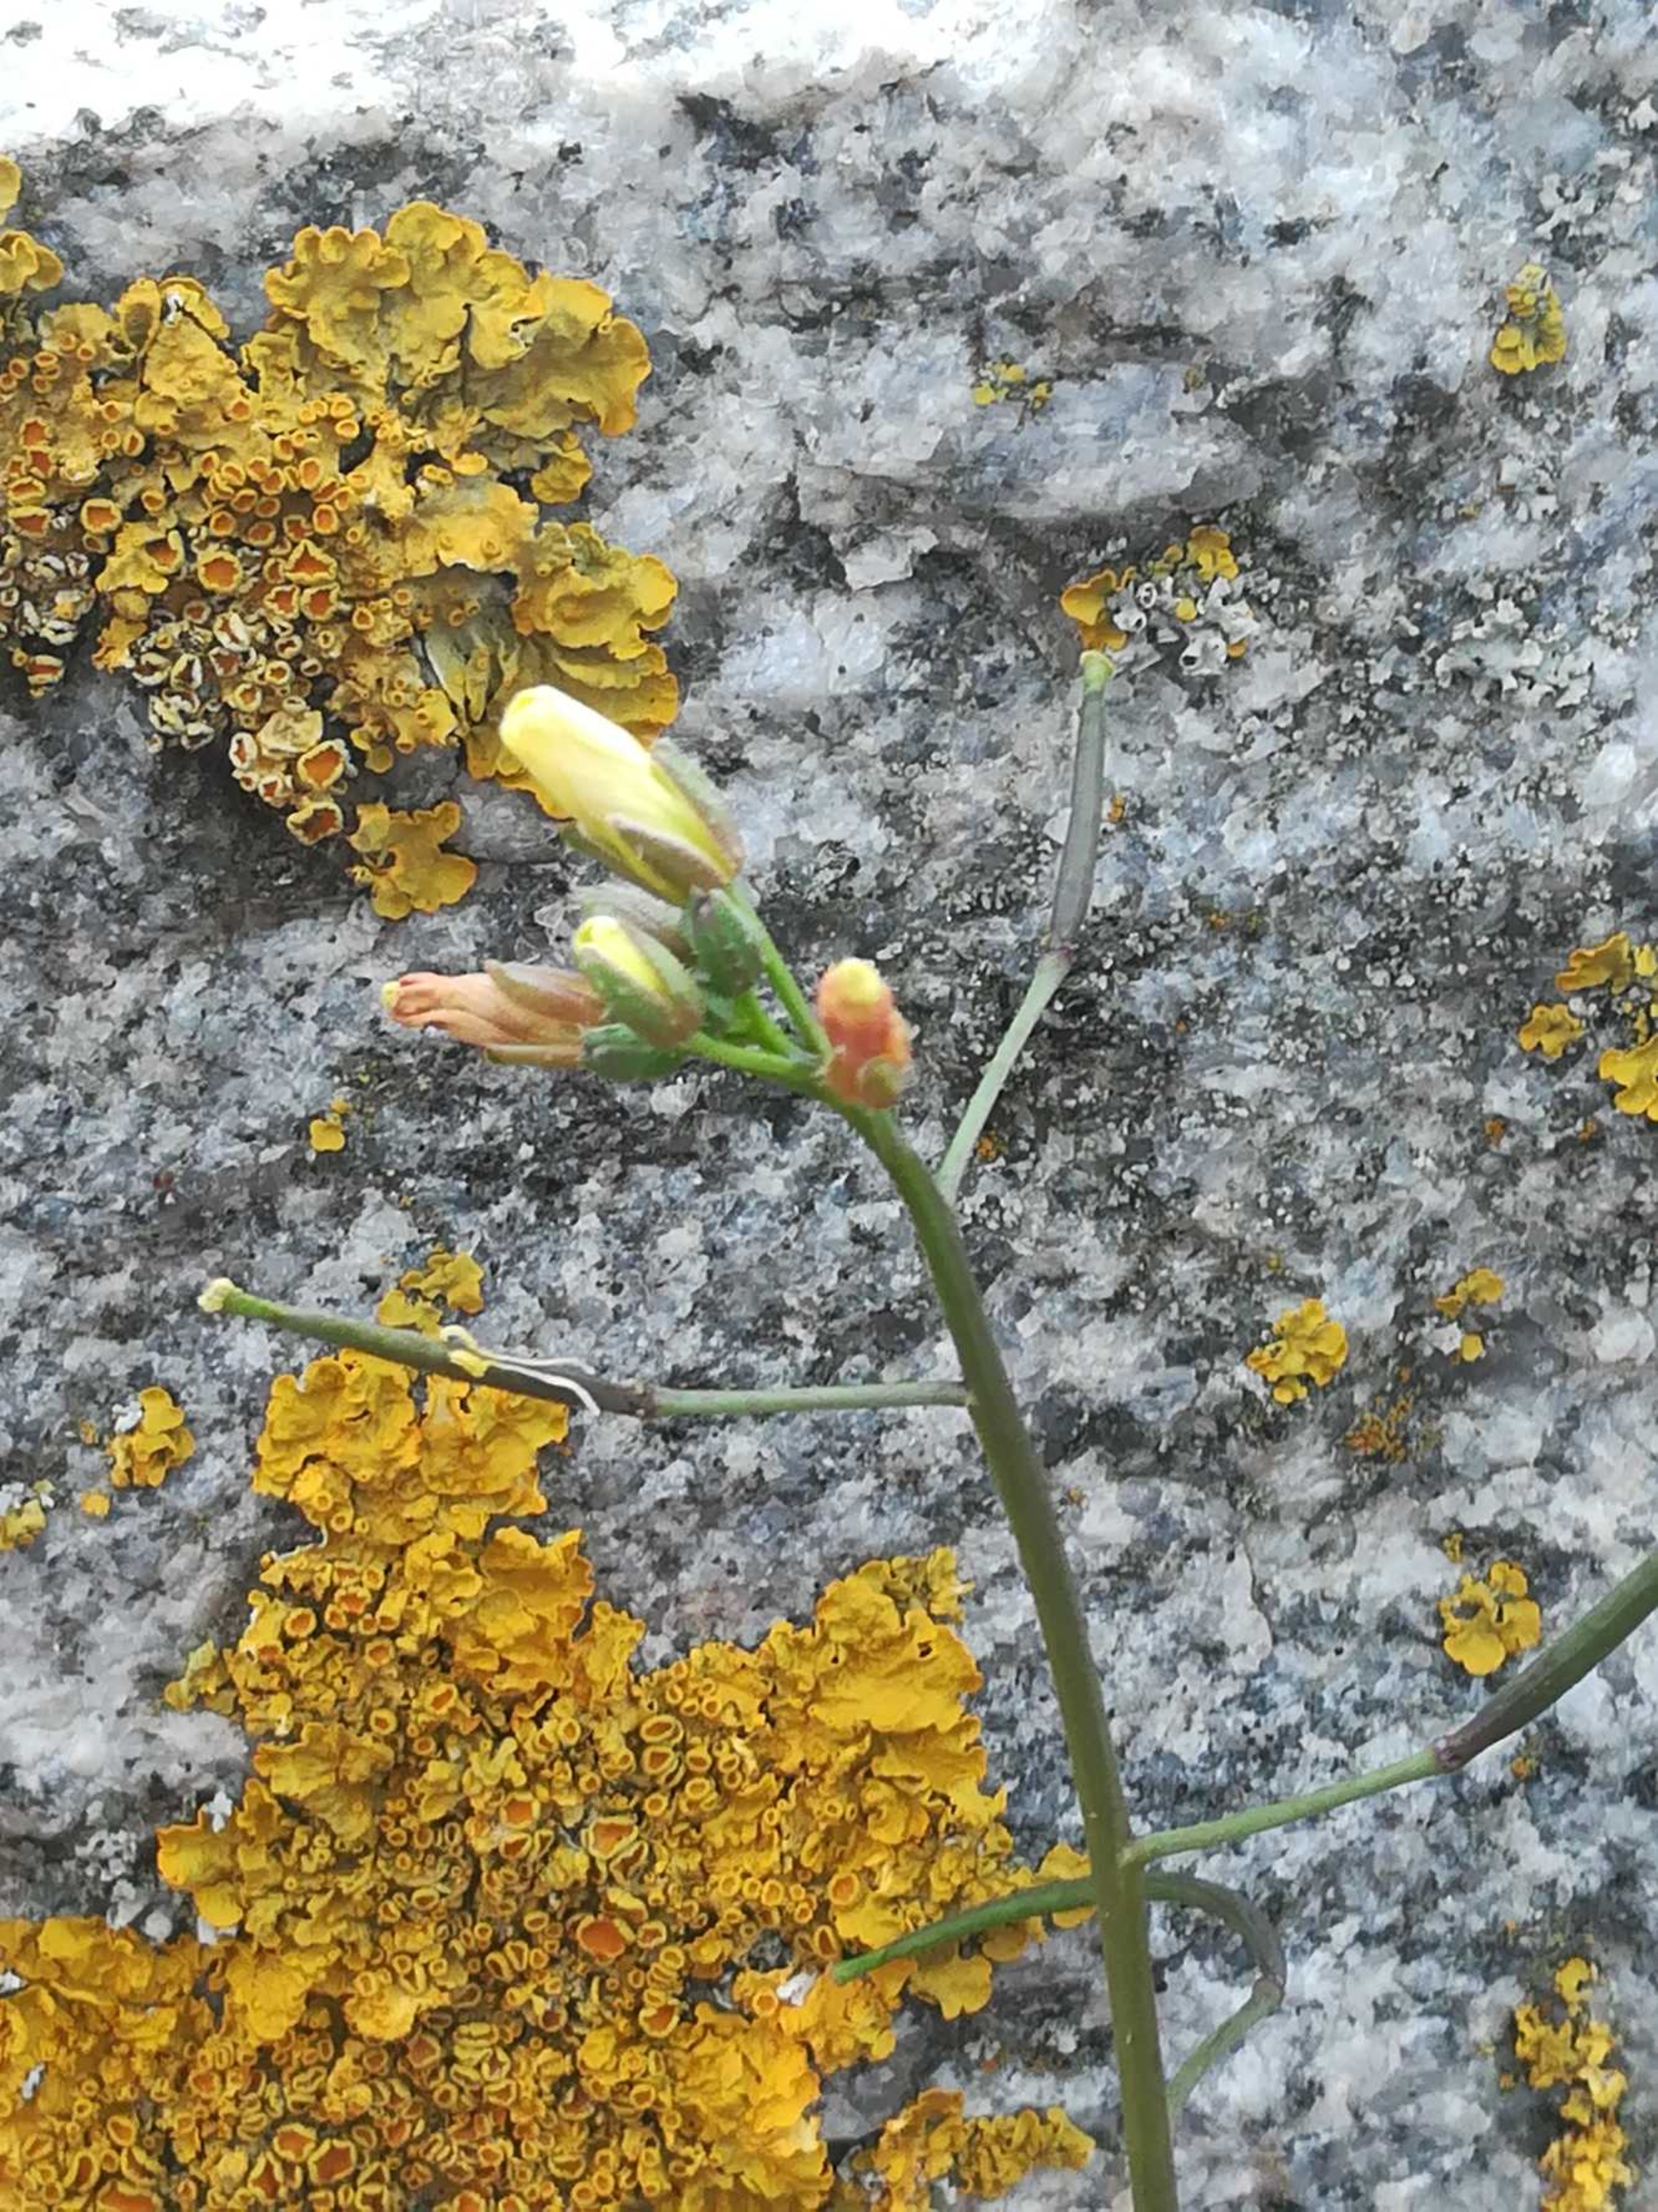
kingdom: Plantae
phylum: Tracheophyta
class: Magnoliopsida
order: Brassicales
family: Brassicaceae
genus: Diplotaxis
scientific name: Diplotaxis muralis
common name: Mursennep
